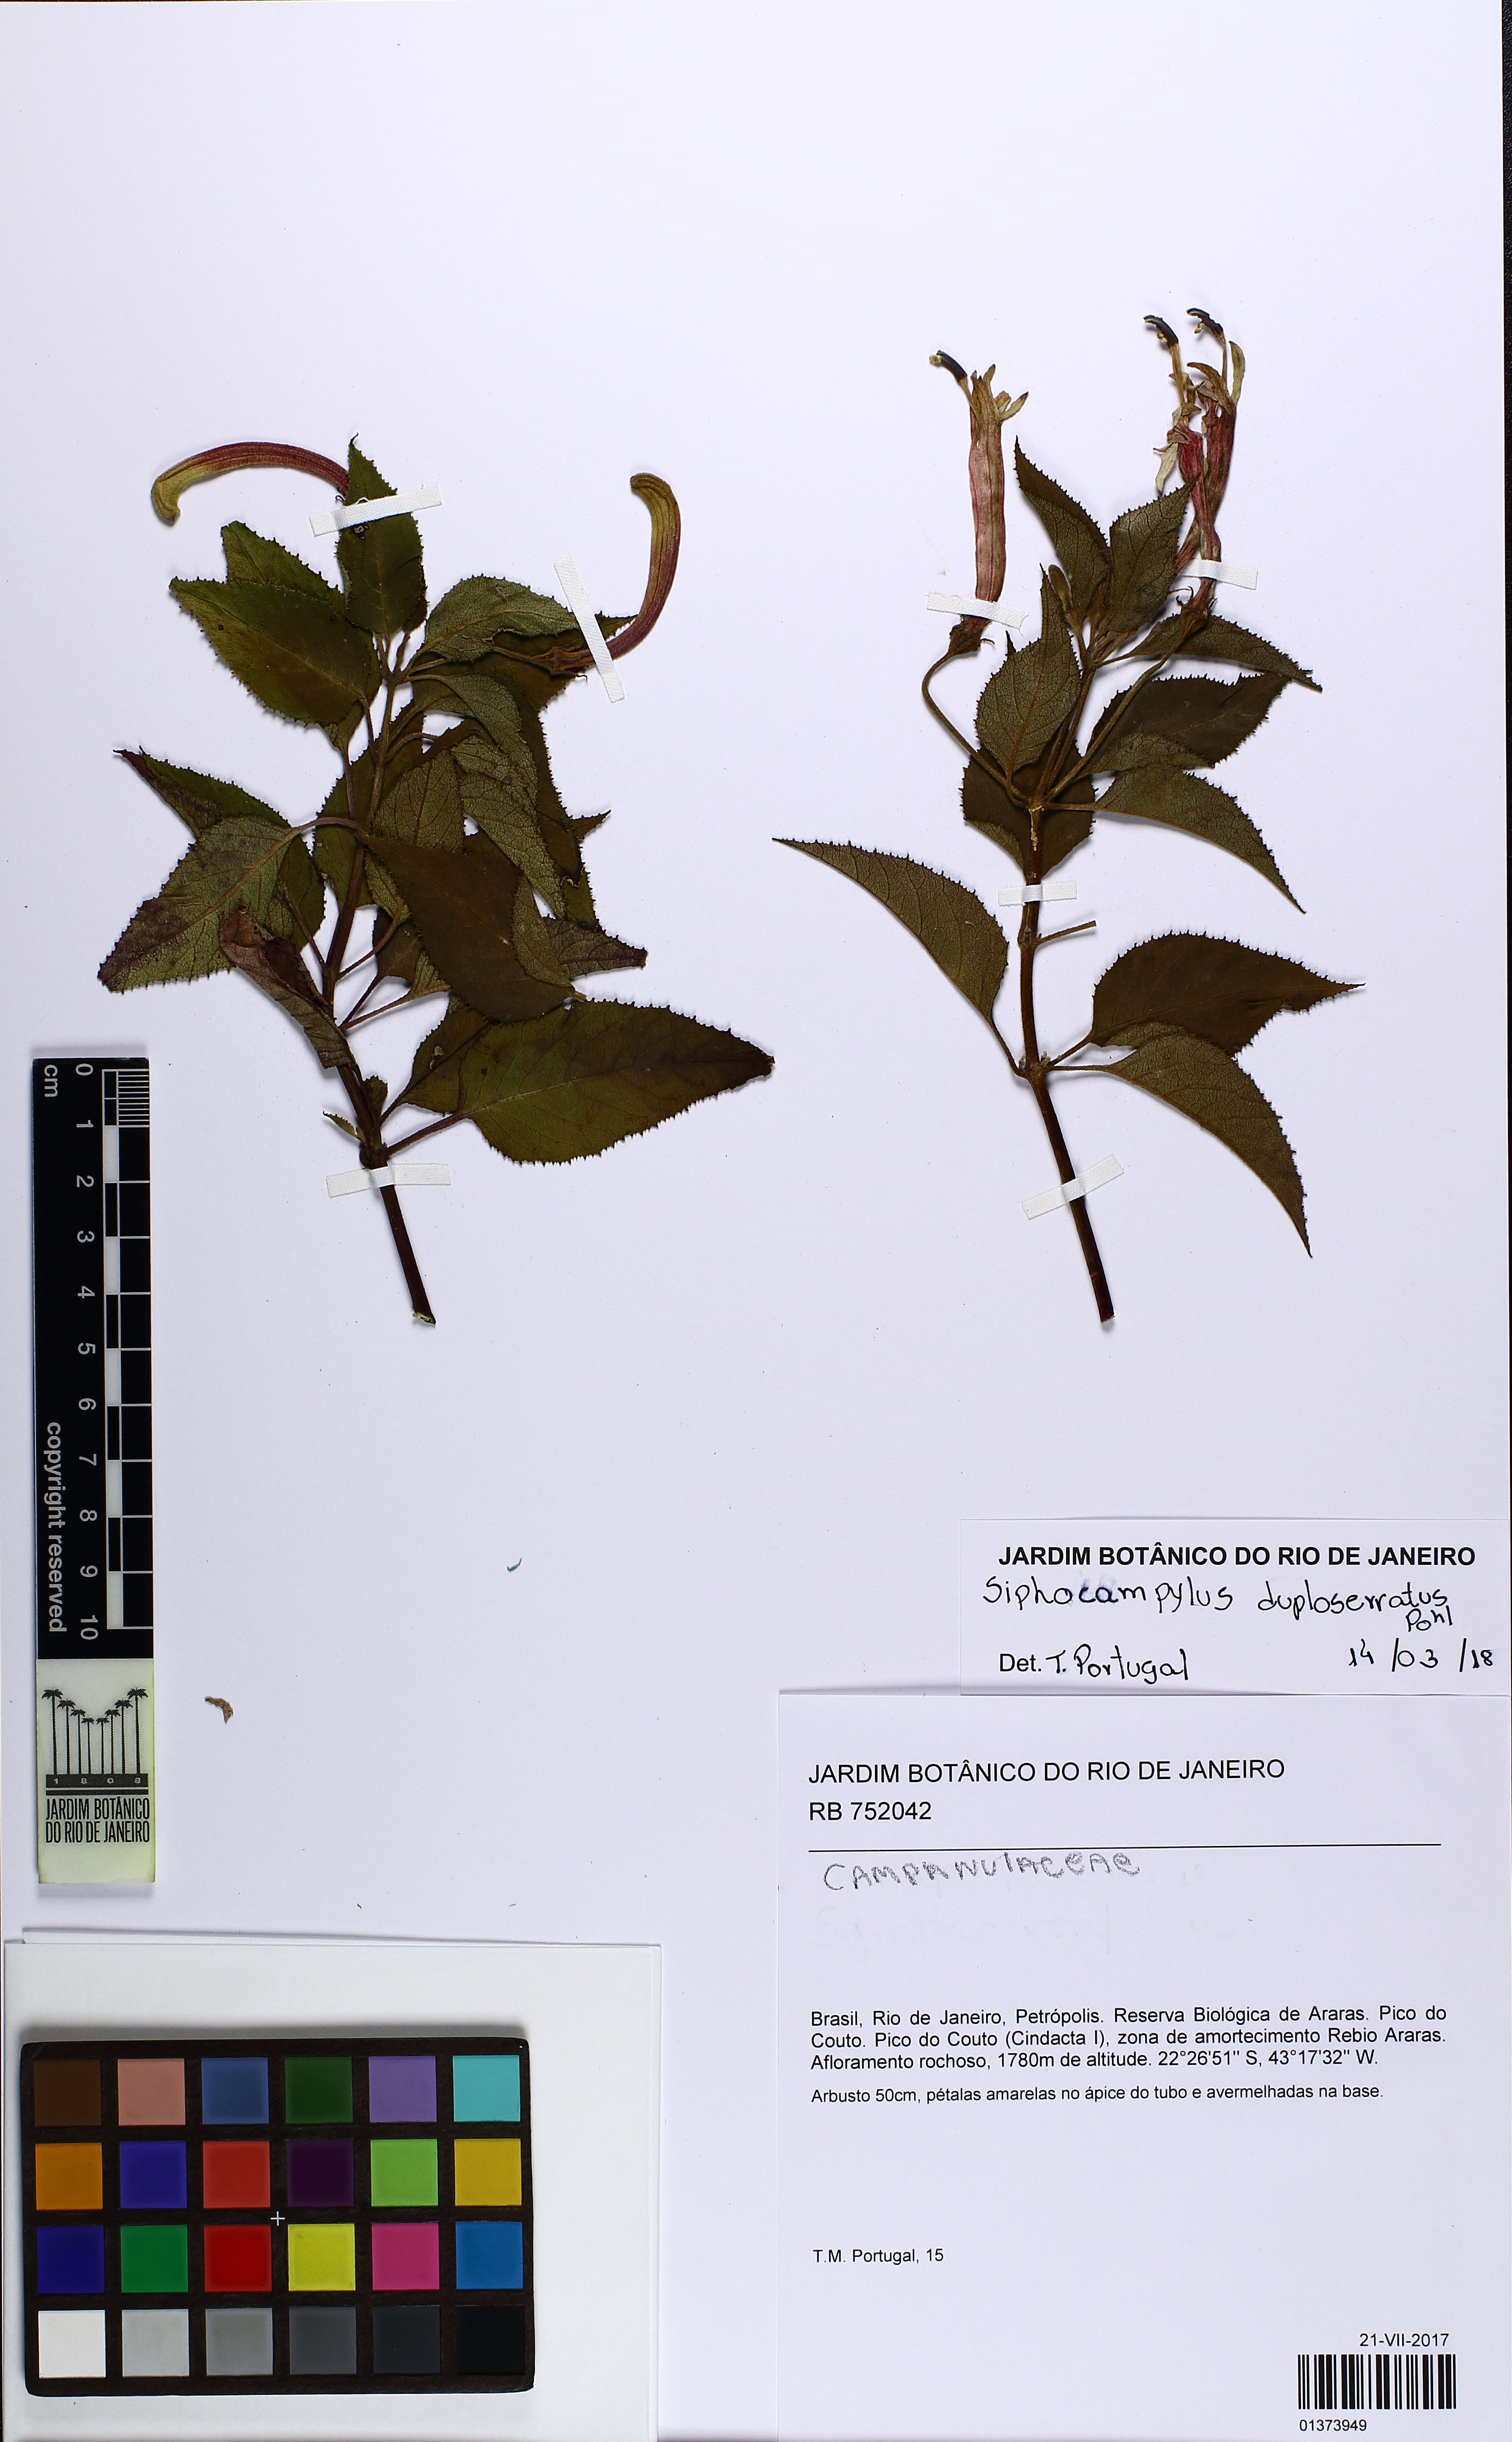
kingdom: Plantae
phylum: Tracheophyta
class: Magnoliopsida
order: Asterales
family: Campanulaceae
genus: Siphocampylus
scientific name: Siphocampylus duploserratus
